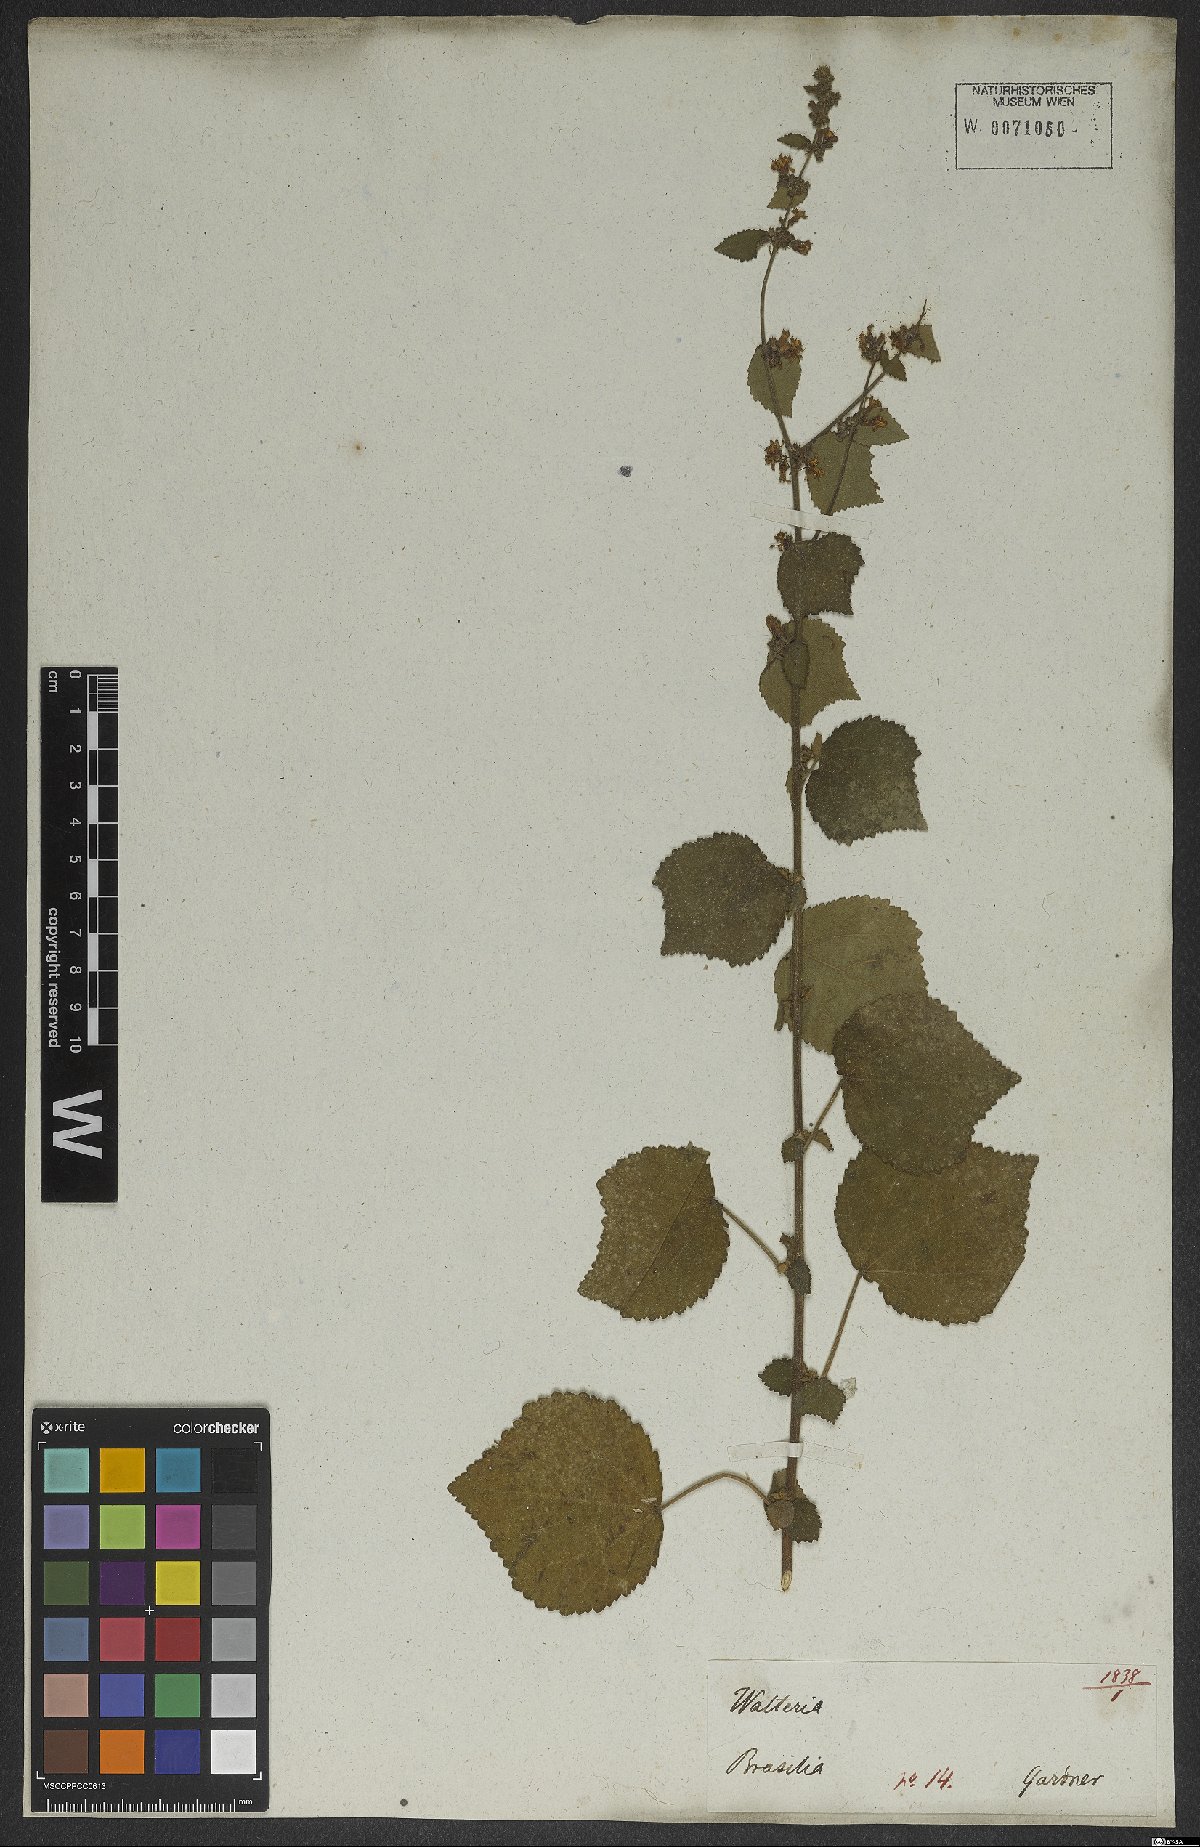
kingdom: Plantae
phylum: Tracheophyta
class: Magnoliopsida
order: Malvales
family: Malvaceae
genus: Triumfetta
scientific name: Triumfetta rhomboidea
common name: Diamond burbark
